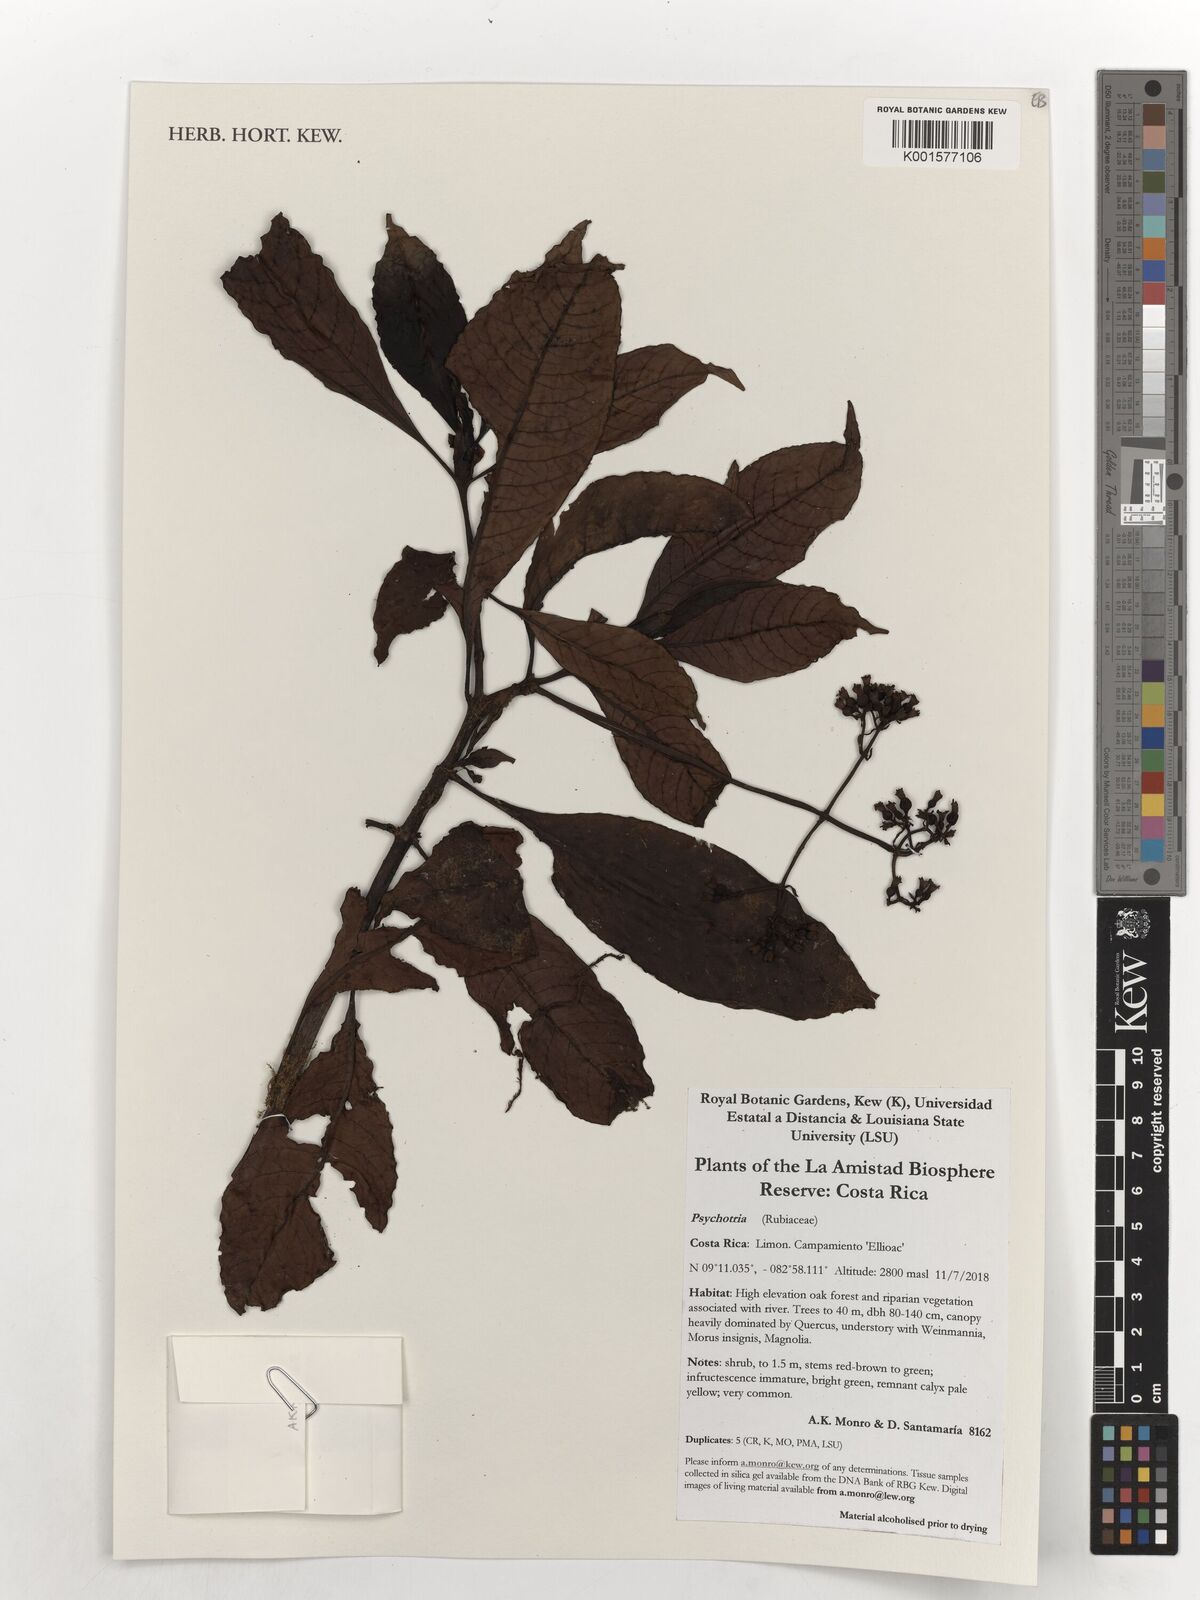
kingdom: Plantae
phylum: Tracheophyta
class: Magnoliopsida
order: Gentianales
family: Rubiaceae
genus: Psychotria
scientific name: Psychotria
